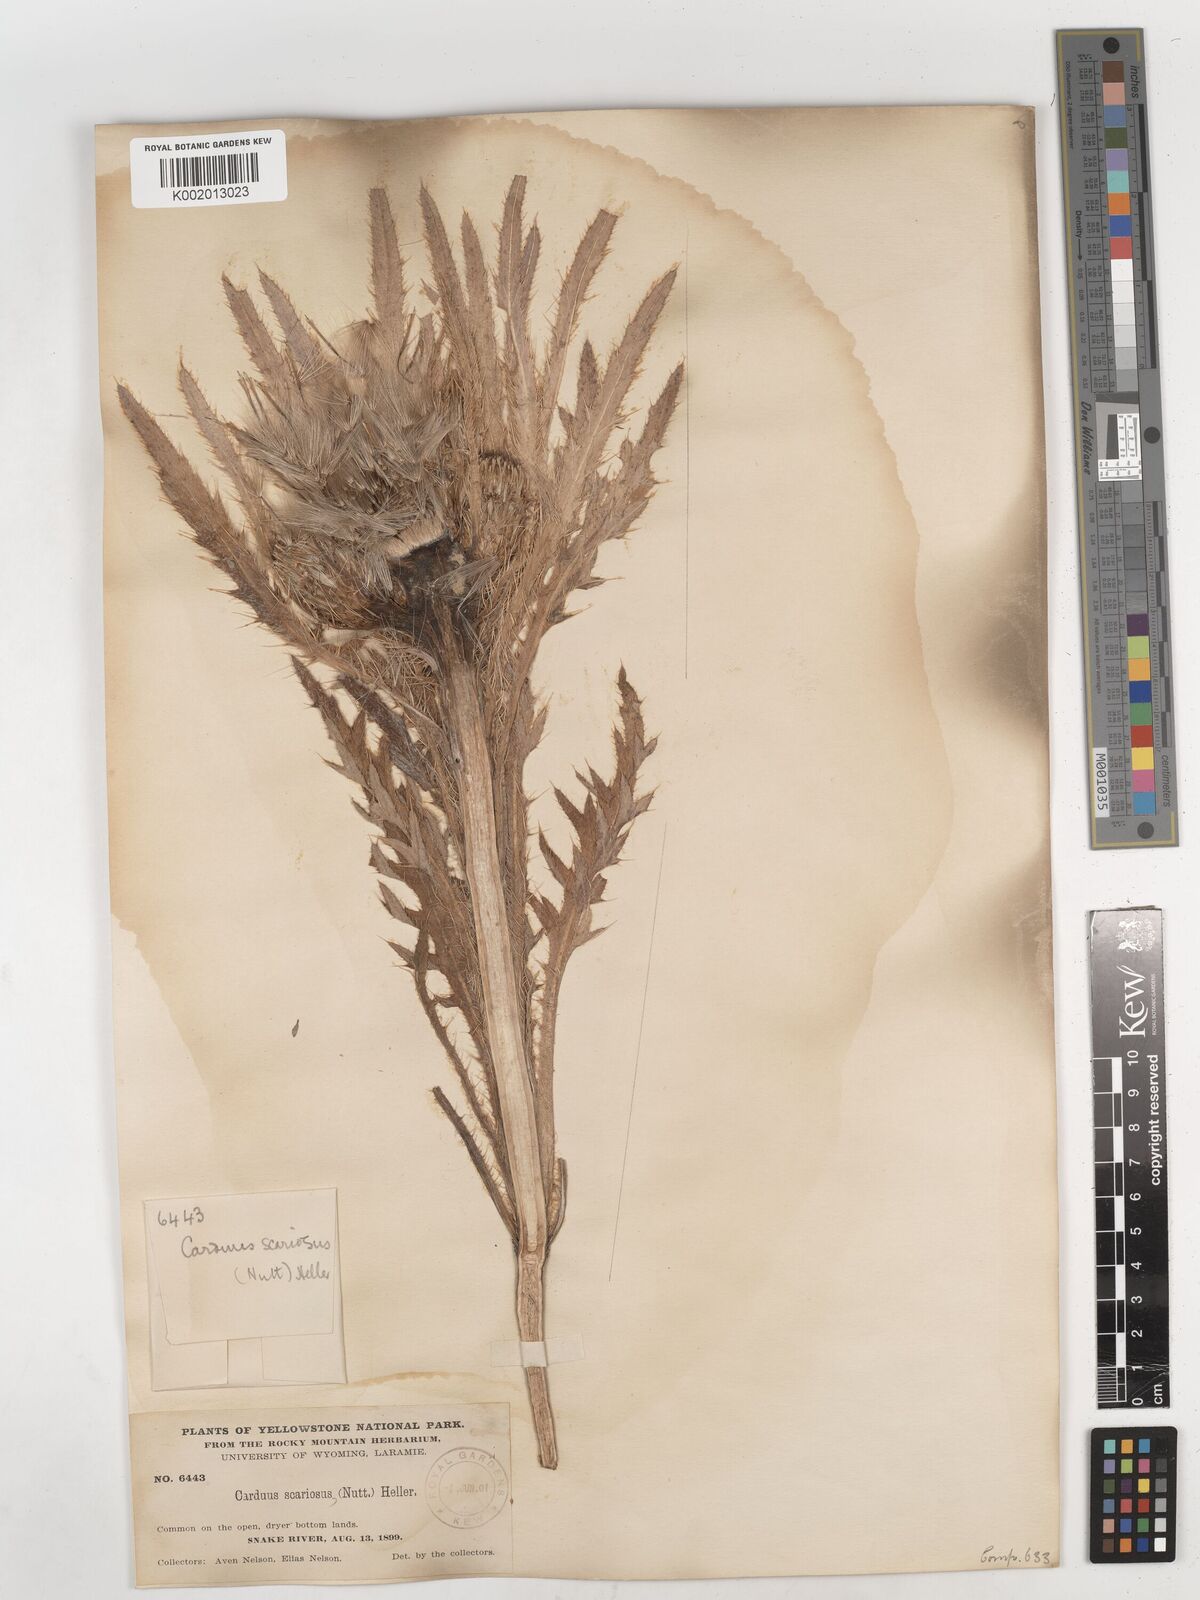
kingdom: Plantae
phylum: Tracheophyta
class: Magnoliopsida
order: Asterales
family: Asteraceae
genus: Cirsium
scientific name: Cirsium scariosum
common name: Meadow thistle
